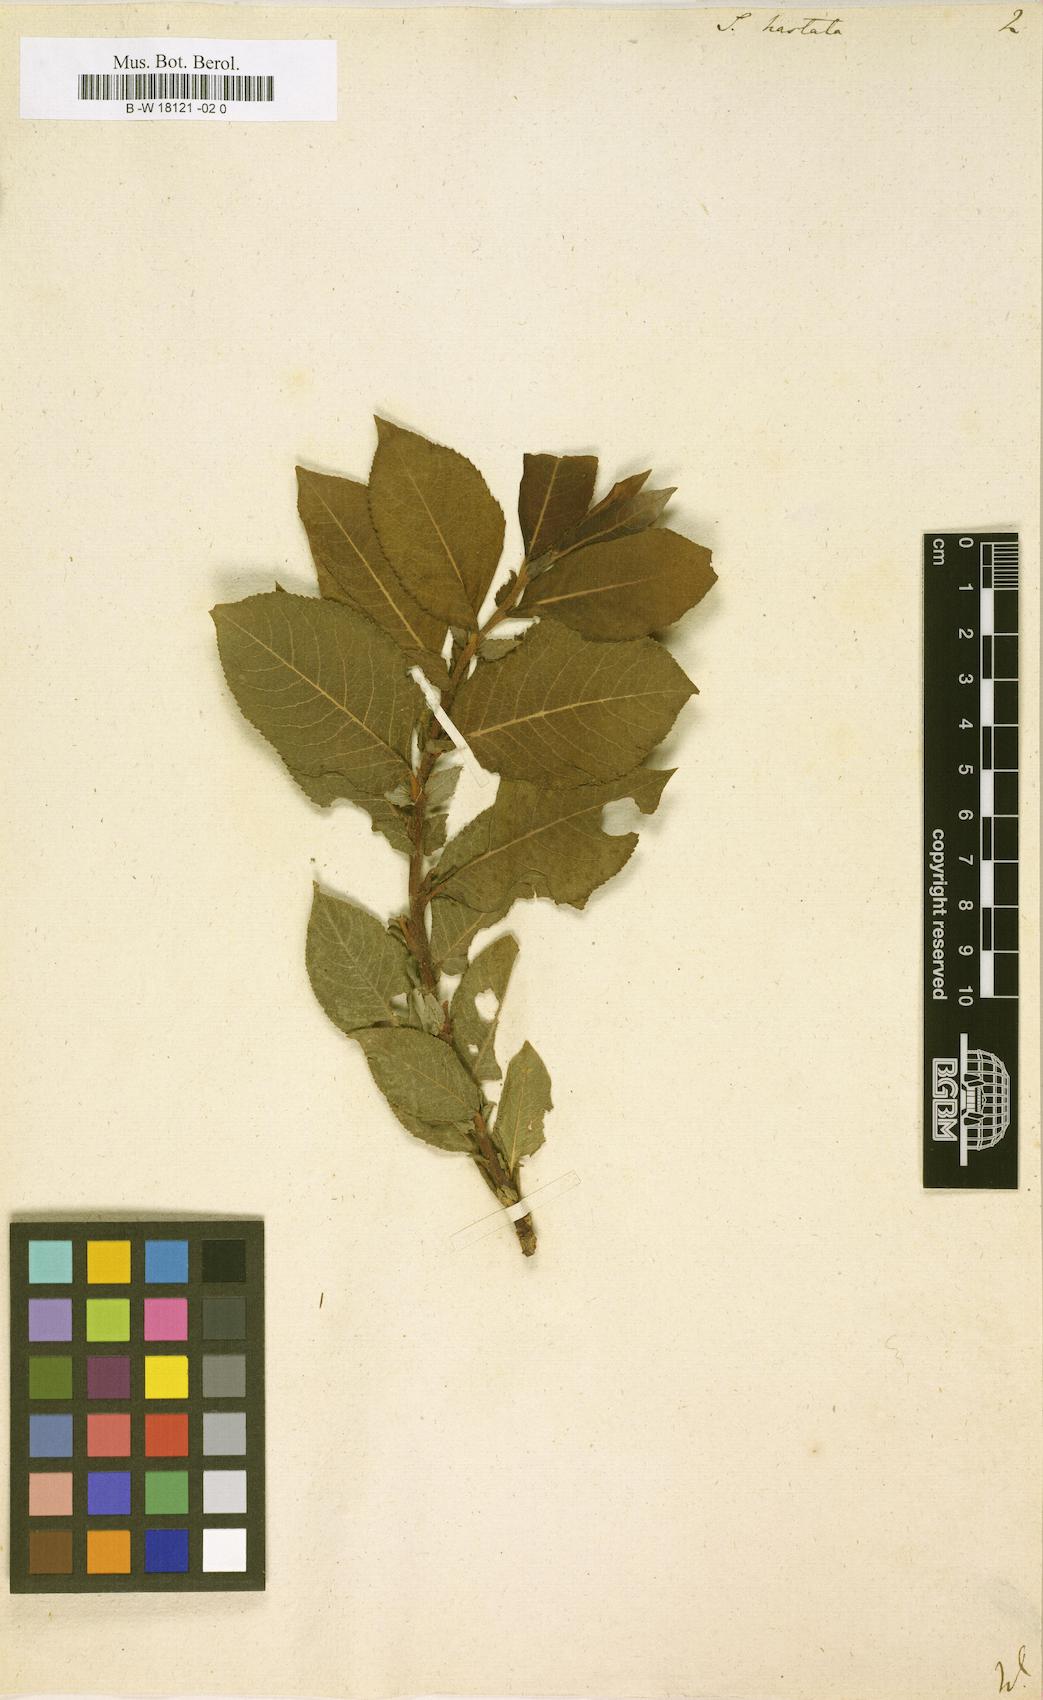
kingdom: Plantae
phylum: Tracheophyta
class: Magnoliopsida
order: Malpighiales
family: Salicaceae
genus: Salix
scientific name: Salix hastata
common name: Halberd willow
